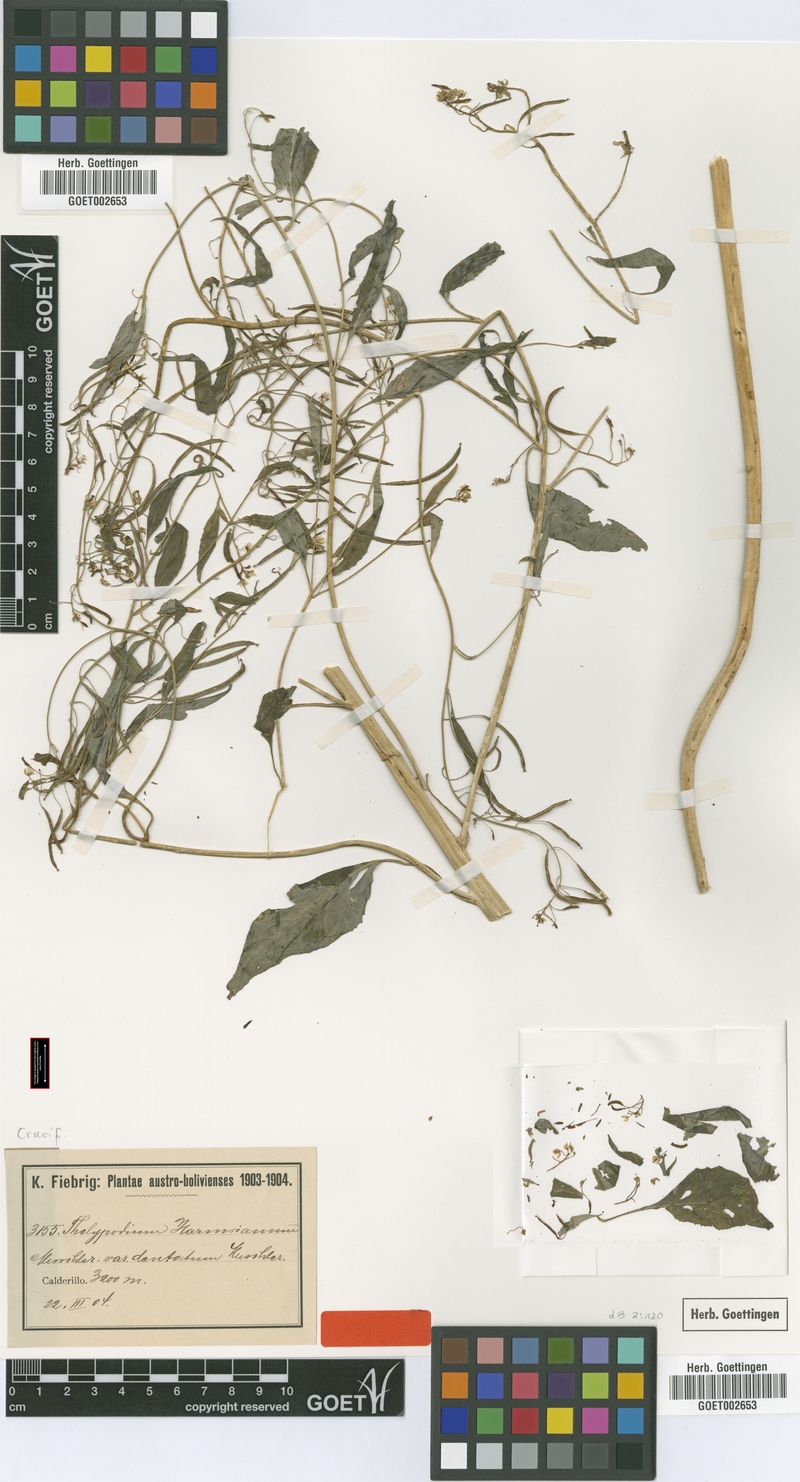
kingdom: Plantae
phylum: Tracheophyta
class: Magnoliopsida
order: Brassicales
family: Brassicaceae
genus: Polypsecadium
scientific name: Polypsecadium harmsianum
